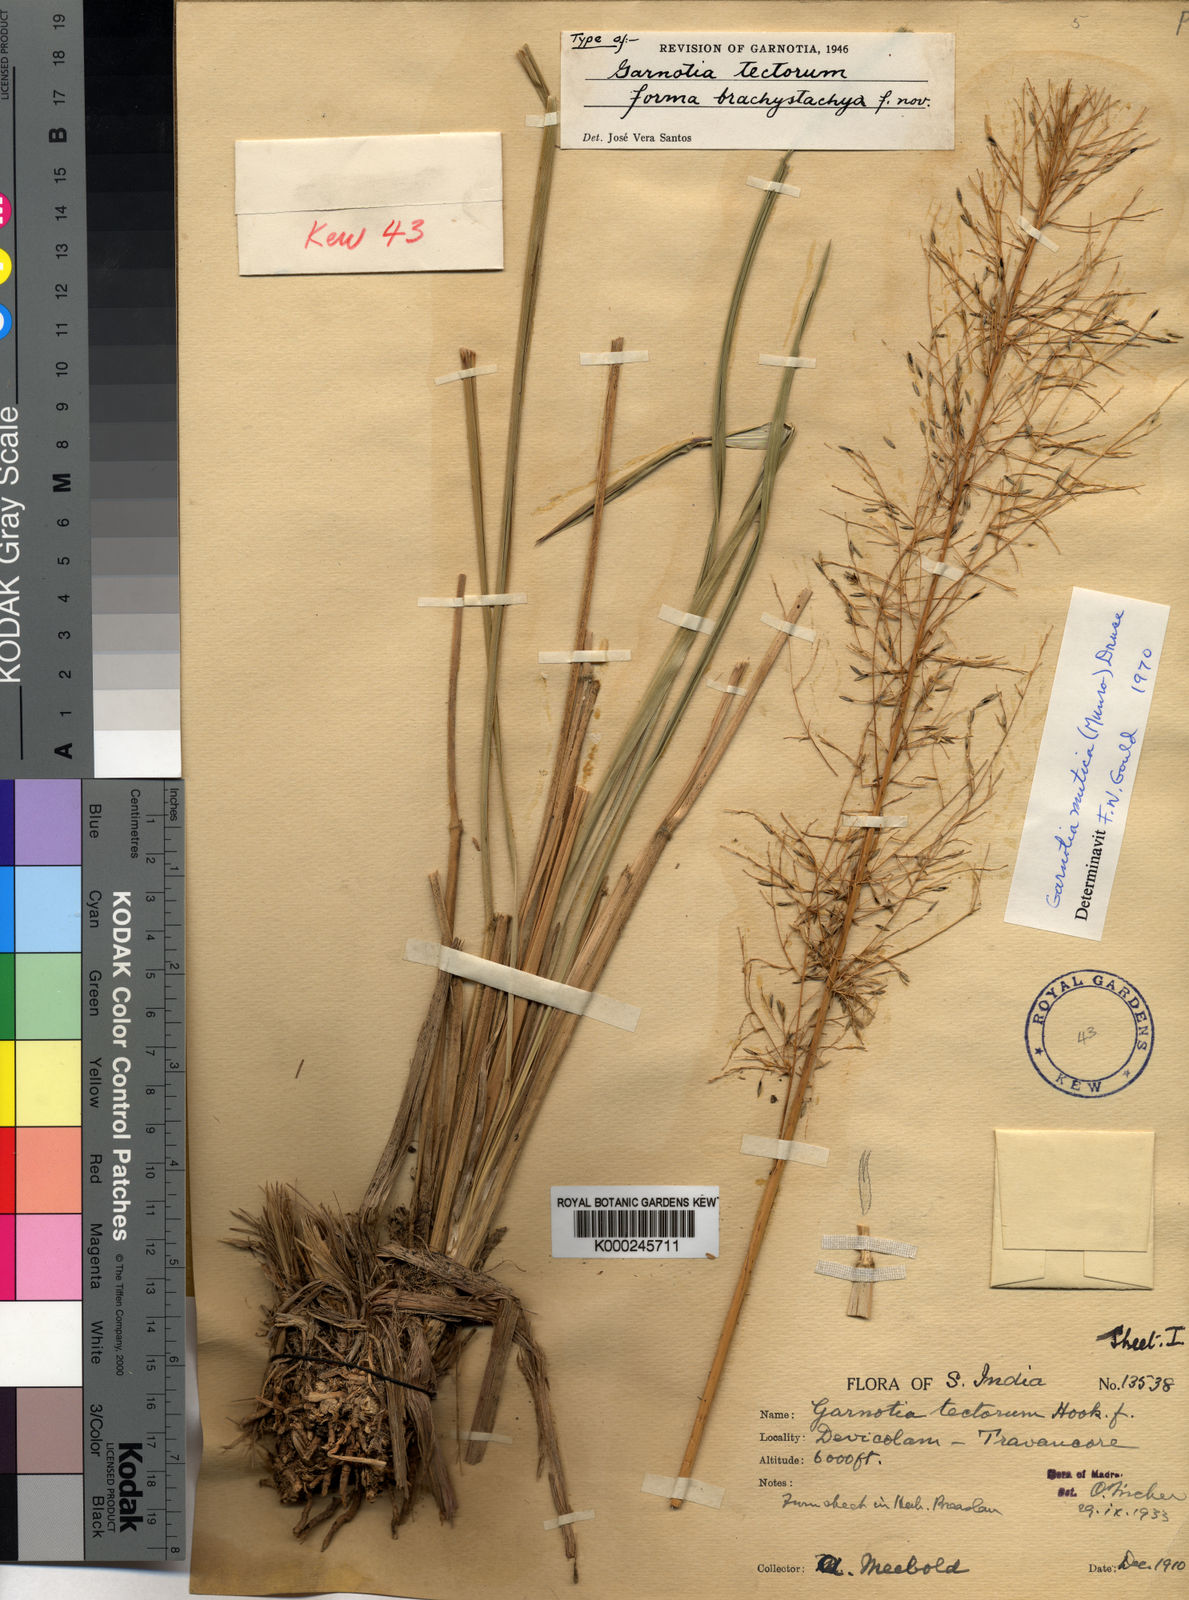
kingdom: Plantae
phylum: Tracheophyta
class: Liliopsida
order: Poales
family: Poaceae
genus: Garnotia
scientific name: Garnotia exaristata
